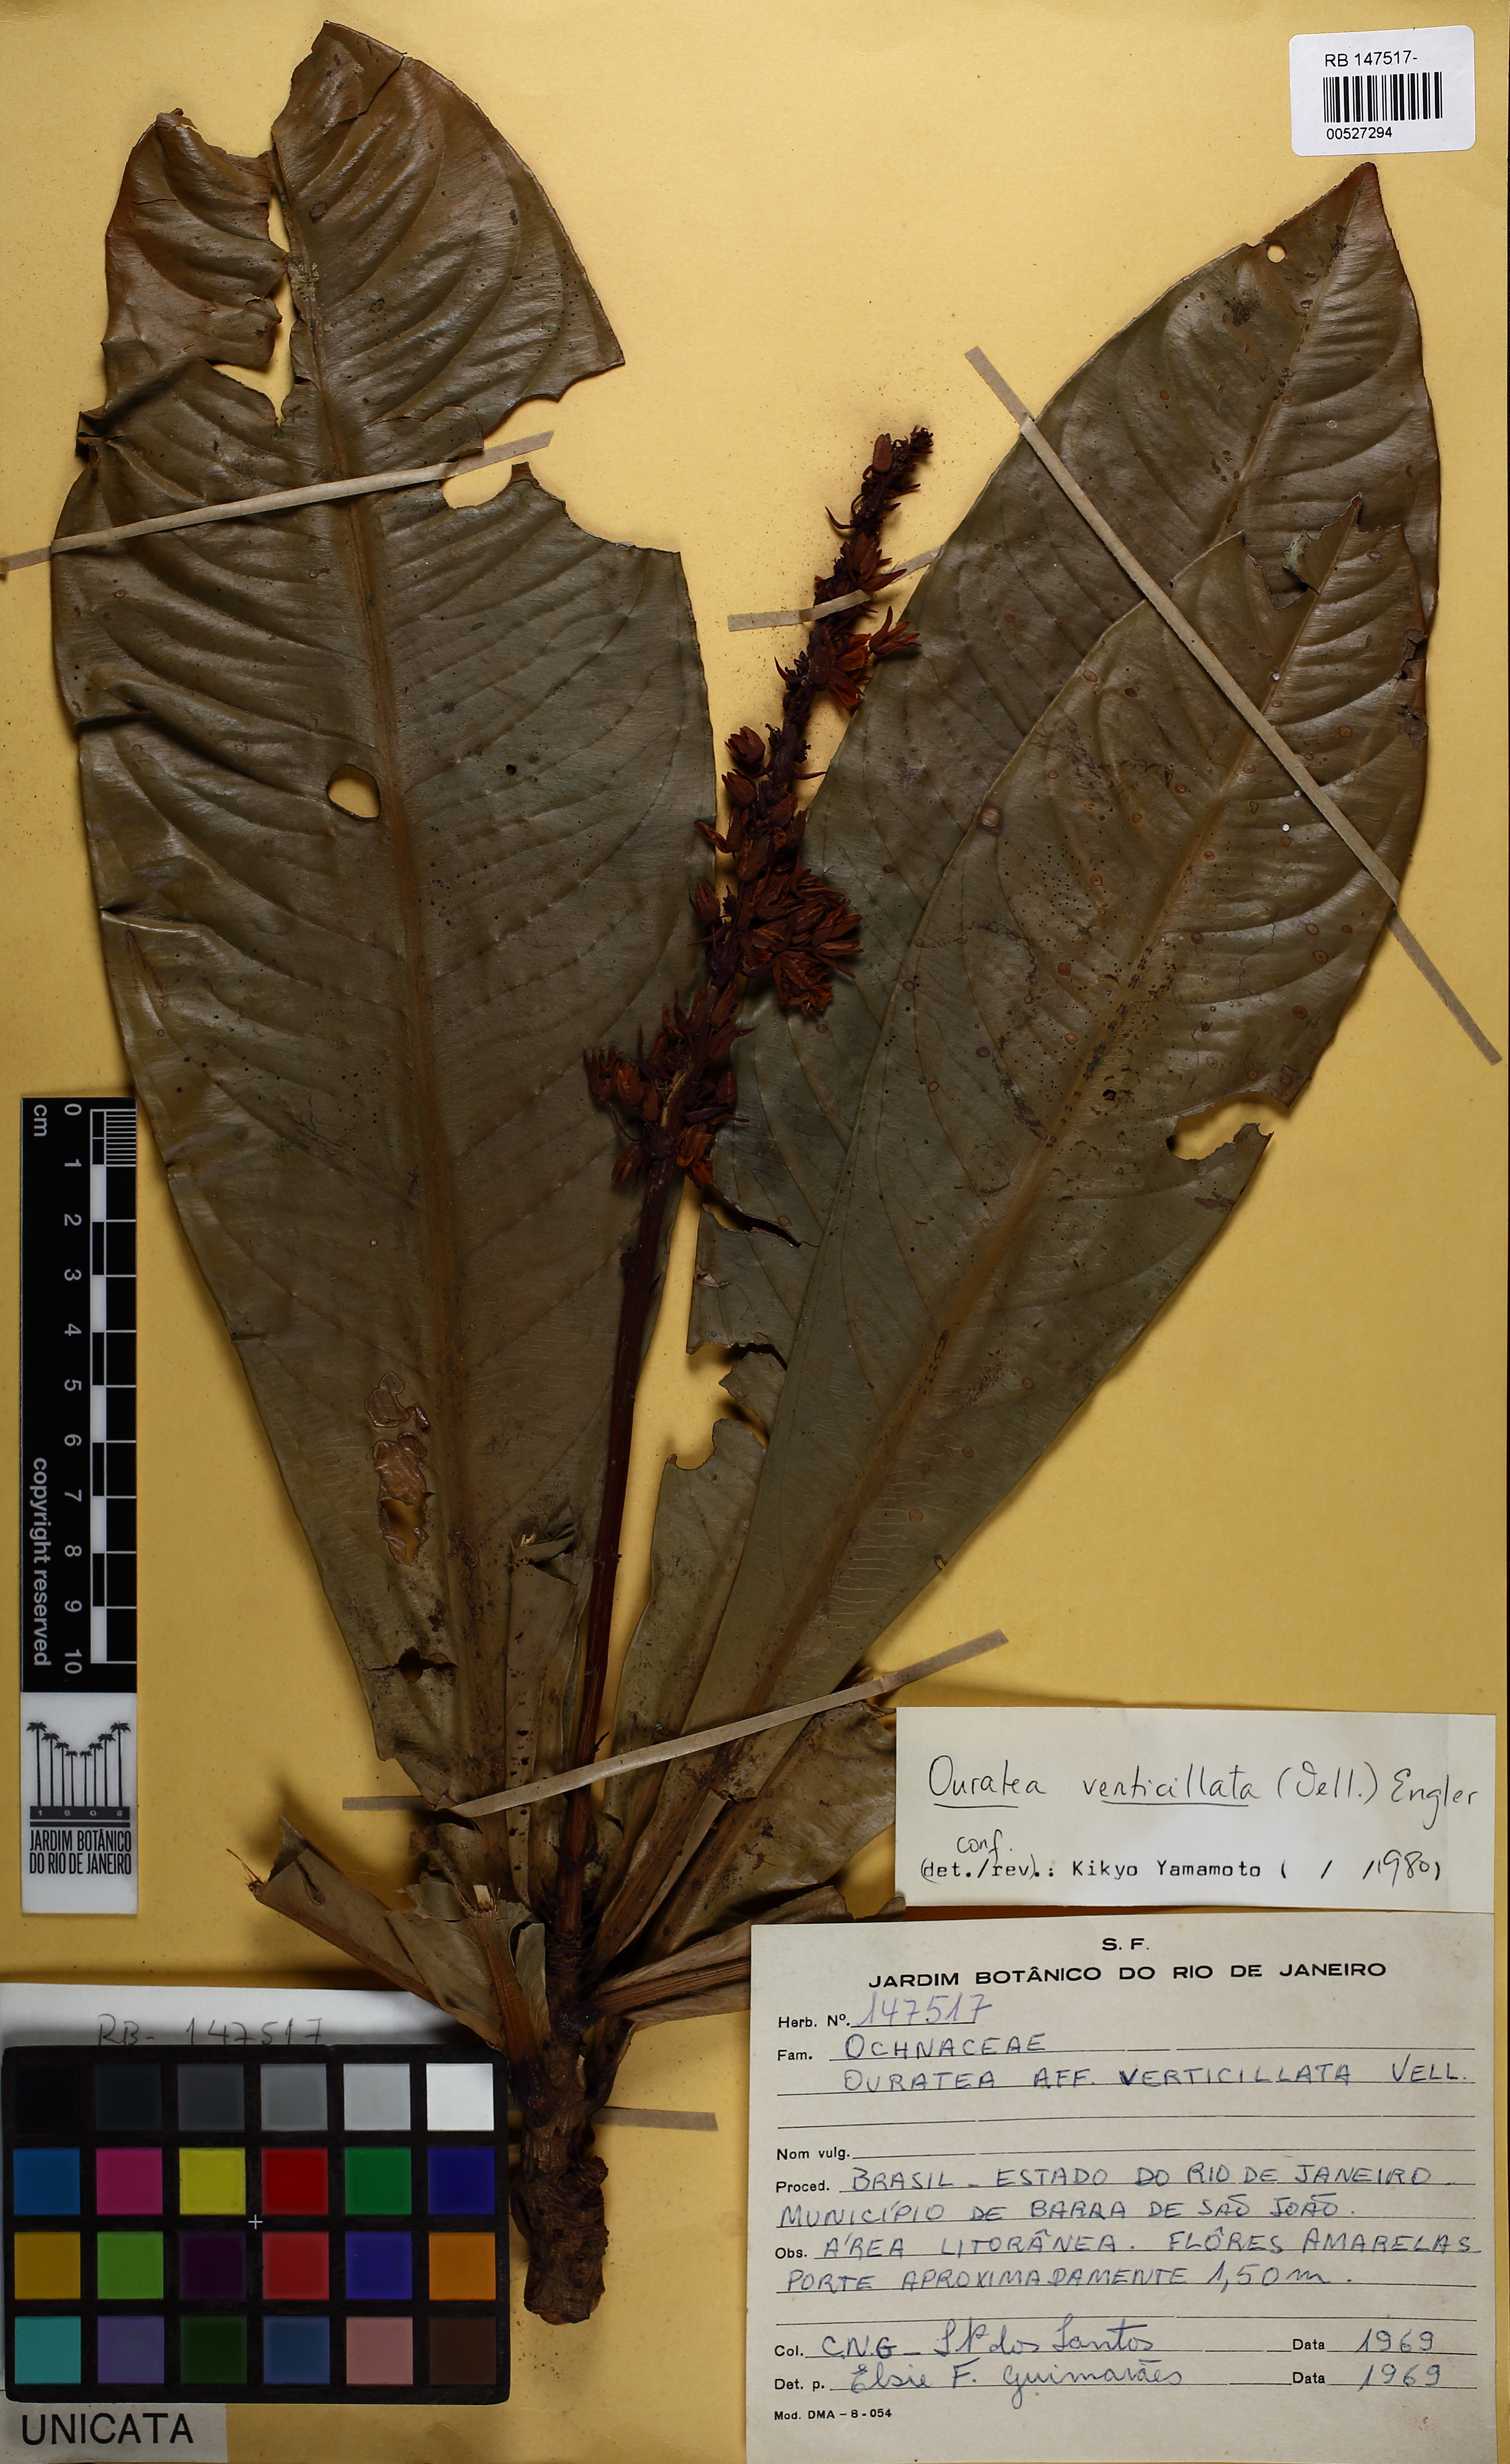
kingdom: Plantae
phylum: Tracheophyta
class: Magnoliopsida
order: Malpighiales
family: Ochnaceae
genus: Ouratea
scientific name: Ouratea verticillata
